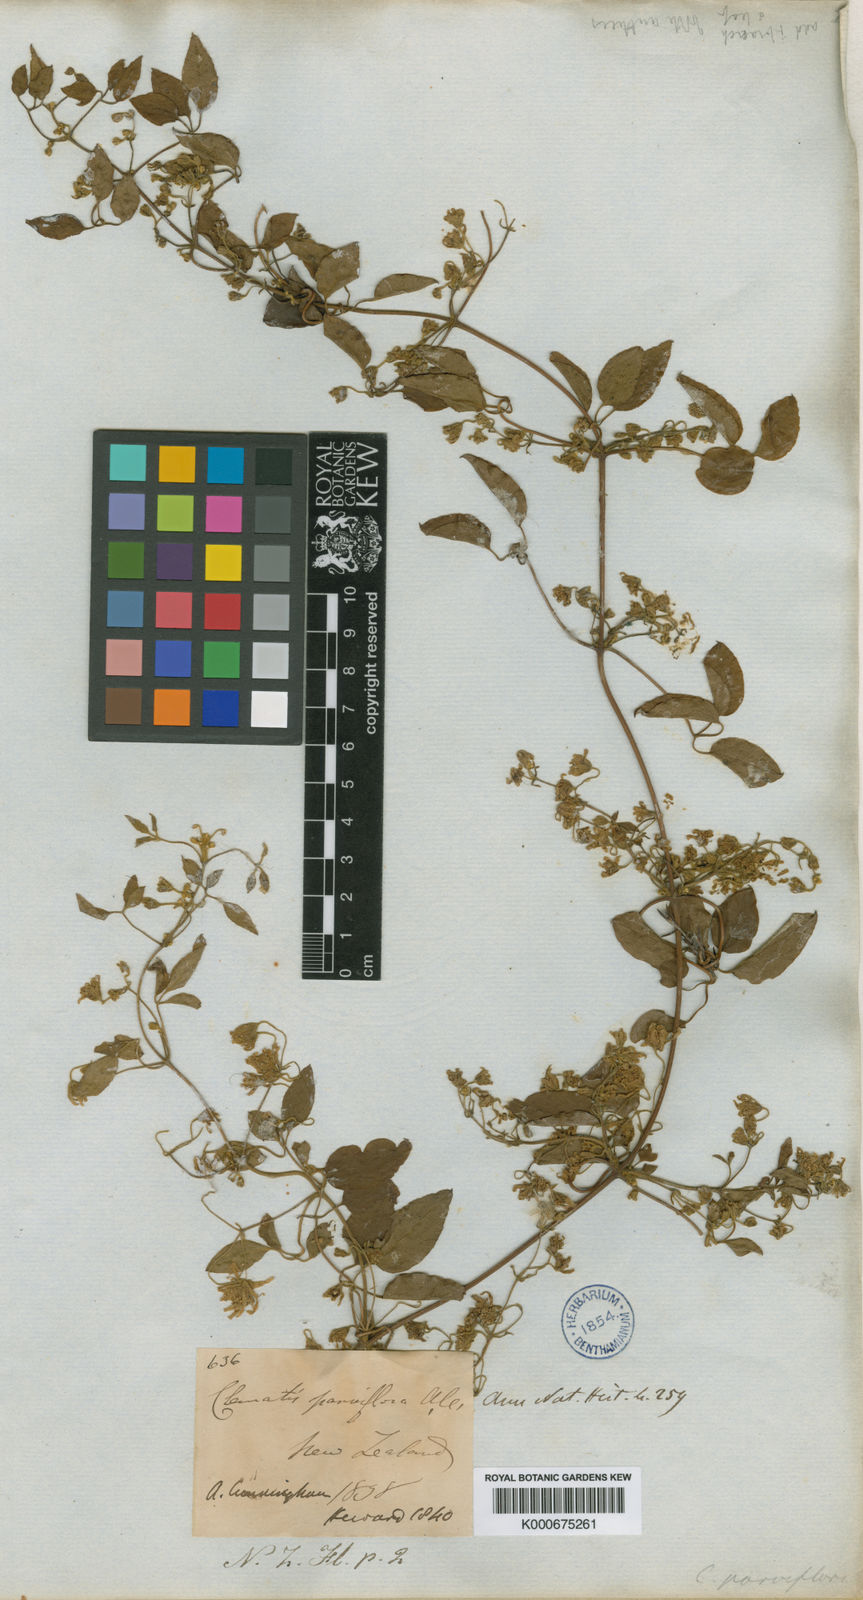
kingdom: Plantae
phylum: Tracheophyta
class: Magnoliopsida
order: Ranunculales
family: Ranunculaceae
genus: Clematis
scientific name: Clematis viticella
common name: Purple clematis
